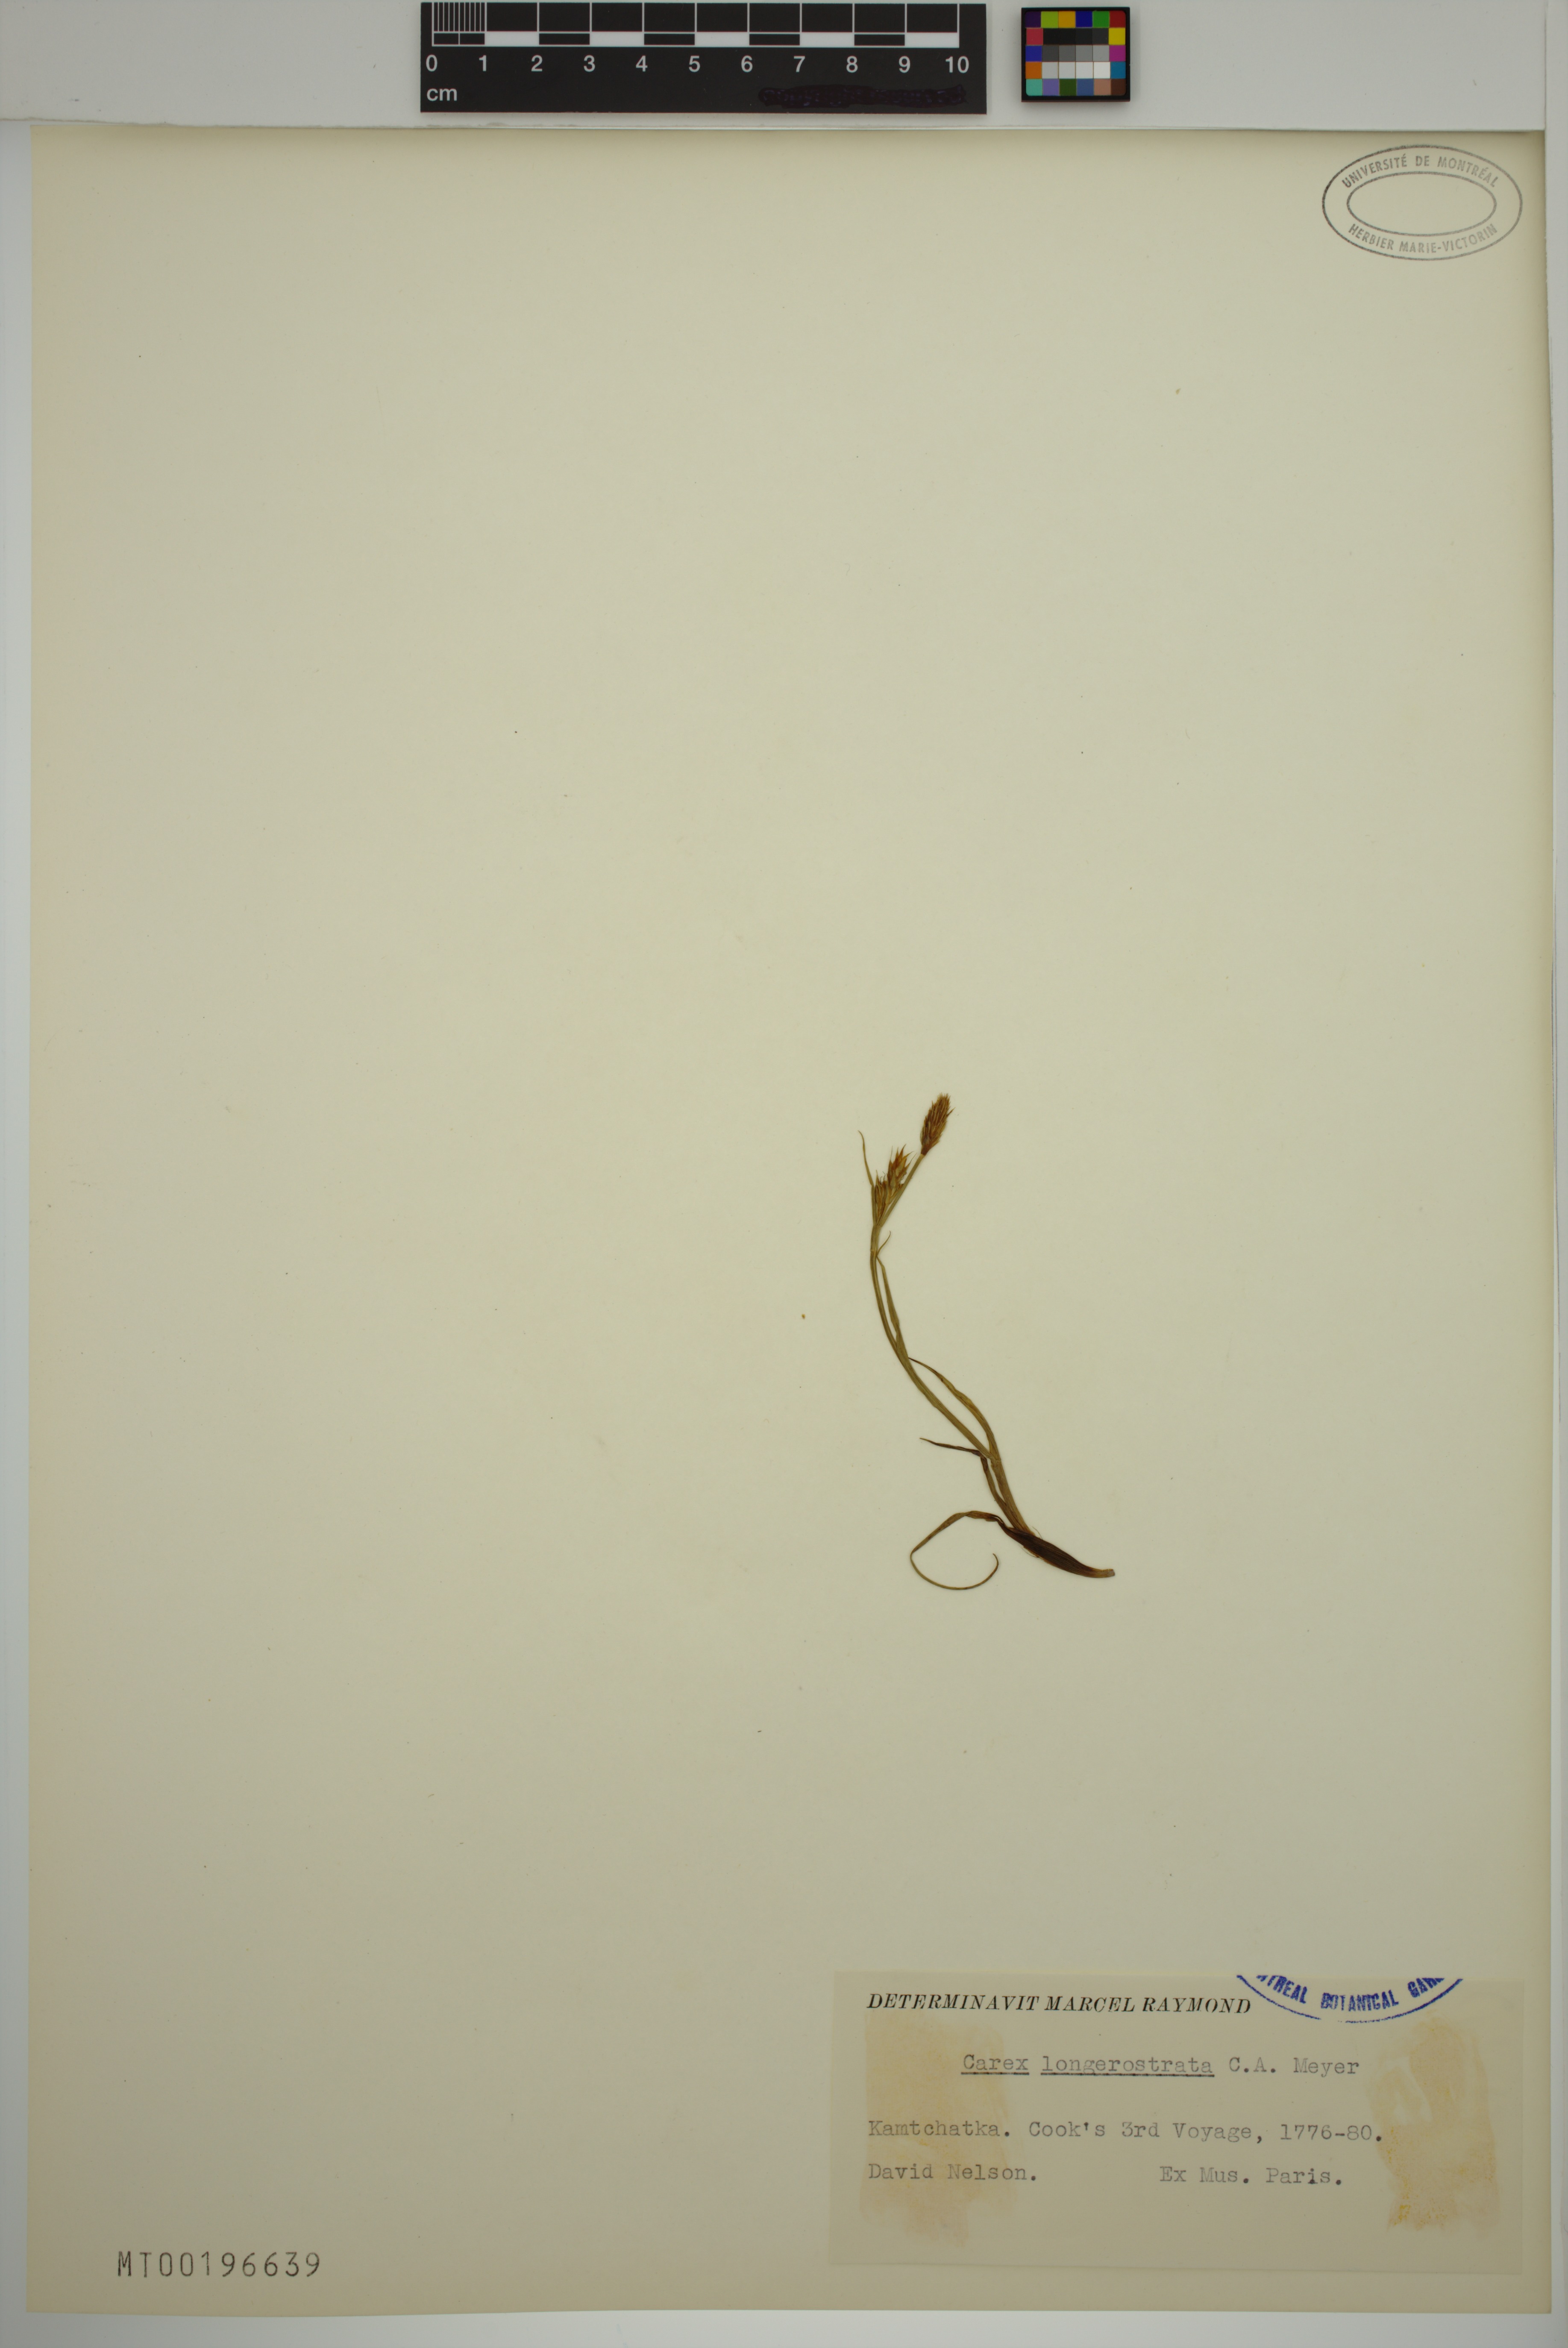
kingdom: Plantae
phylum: Tracheophyta
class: Liliopsida
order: Poales
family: Cyperaceae
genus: Carex
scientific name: Carex longerostrata
